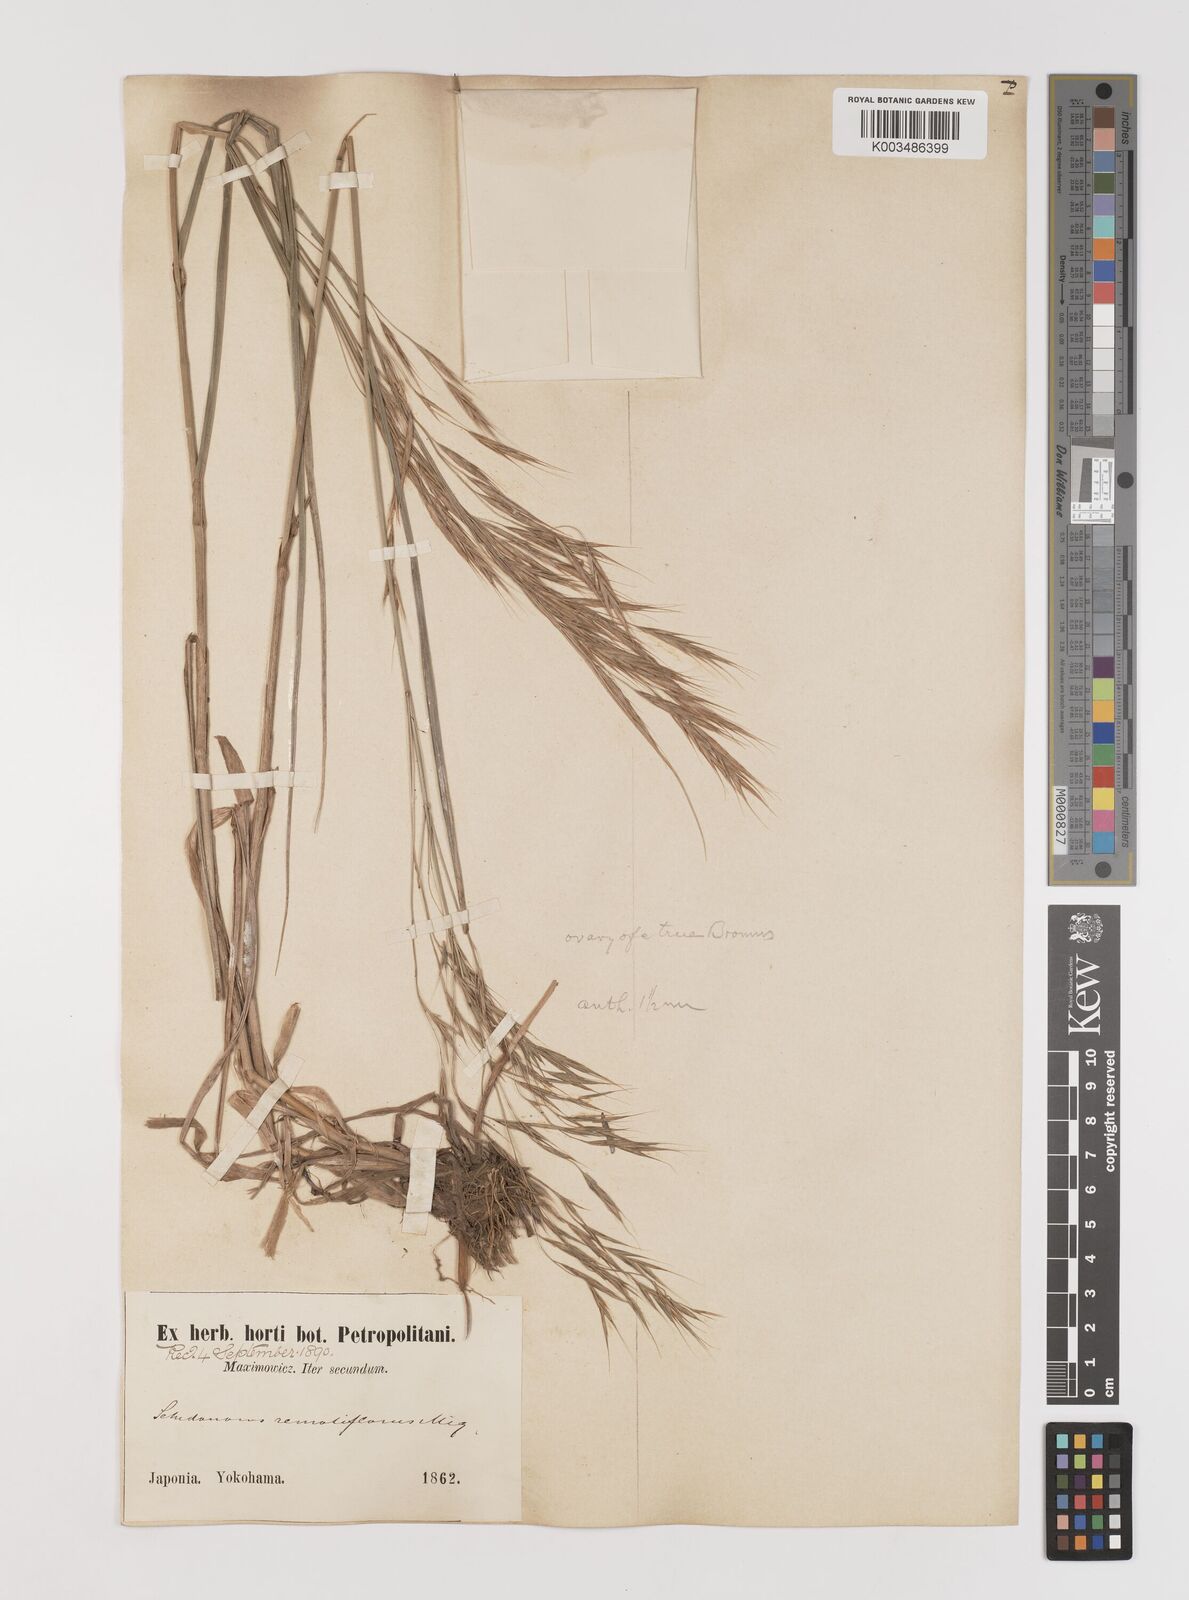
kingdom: Plantae
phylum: Tracheophyta
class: Liliopsida
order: Poales
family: Poaceae
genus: Bromus
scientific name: Bromus
